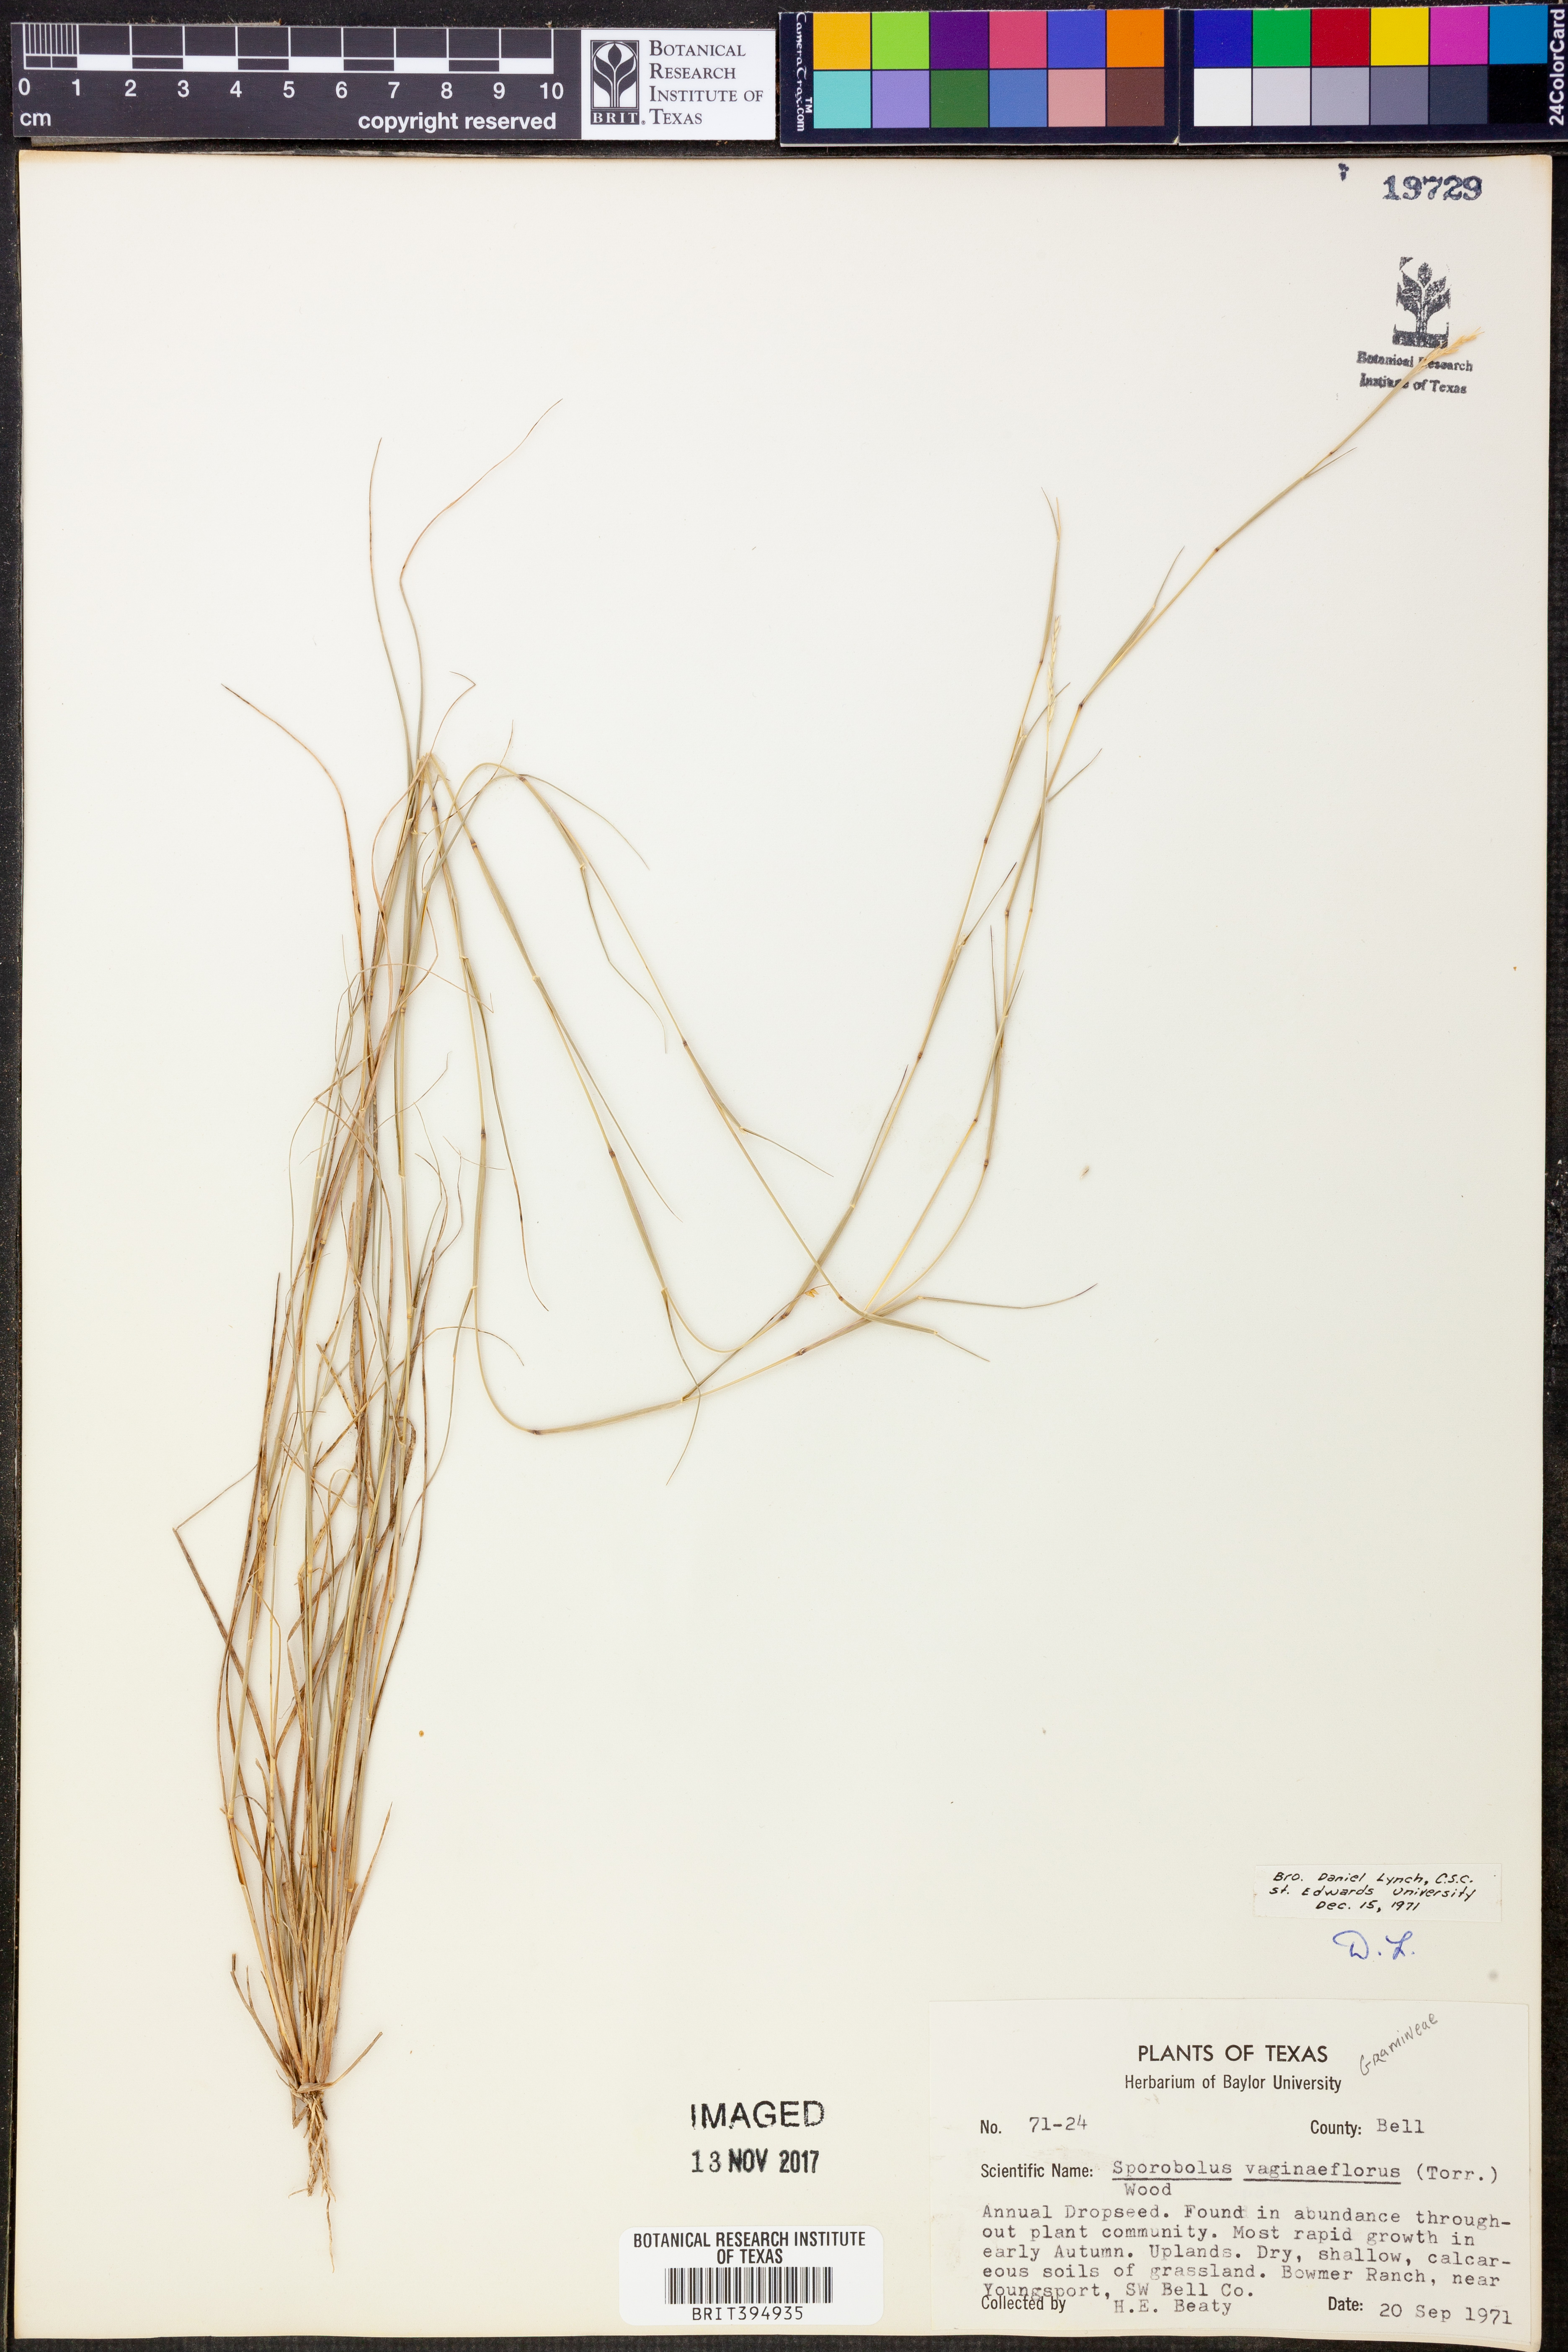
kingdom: Plantae
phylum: Tracheophyta
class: Liliopsida
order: Poales
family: Poaceae
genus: Sporobolus
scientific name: Sporobolus vaginaeflorus
